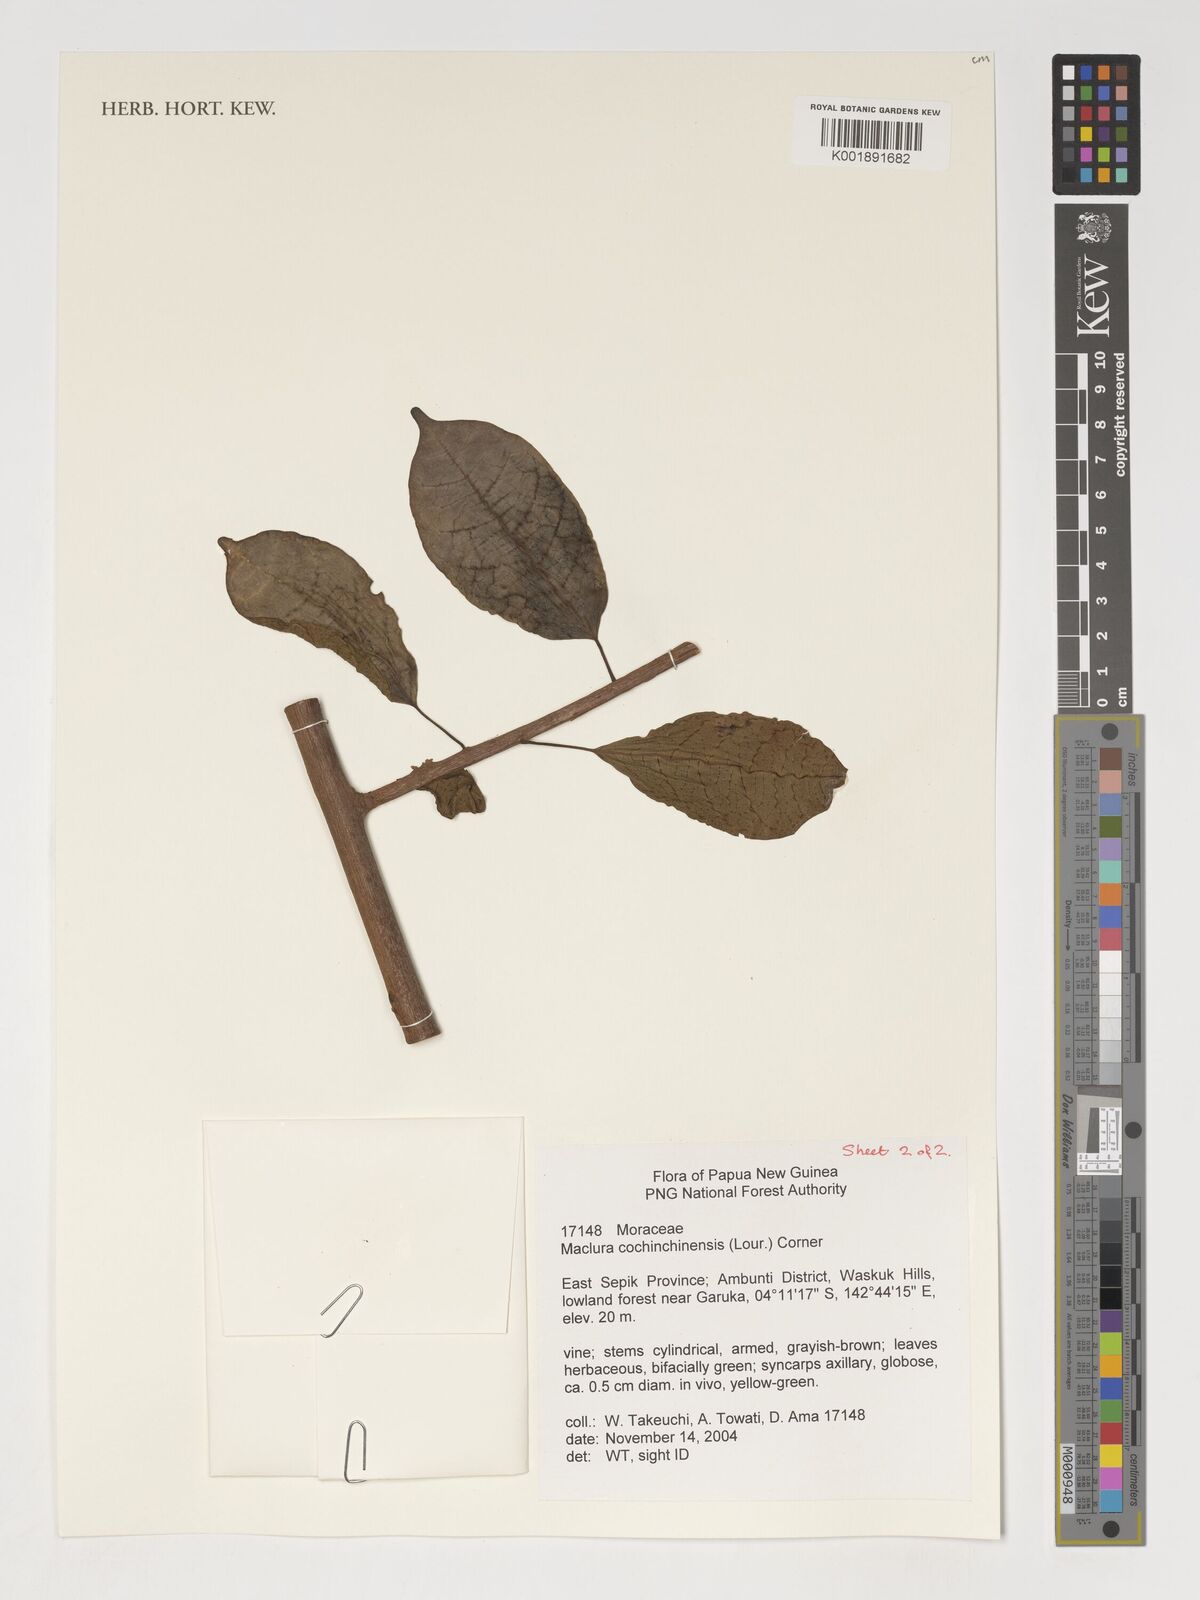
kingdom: Plantae
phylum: Tracheophyta
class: Magnoliopsida
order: Rosales
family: Moraceae
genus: Maclura
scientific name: Maclura cochinchinensis
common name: Cockspurthorn
